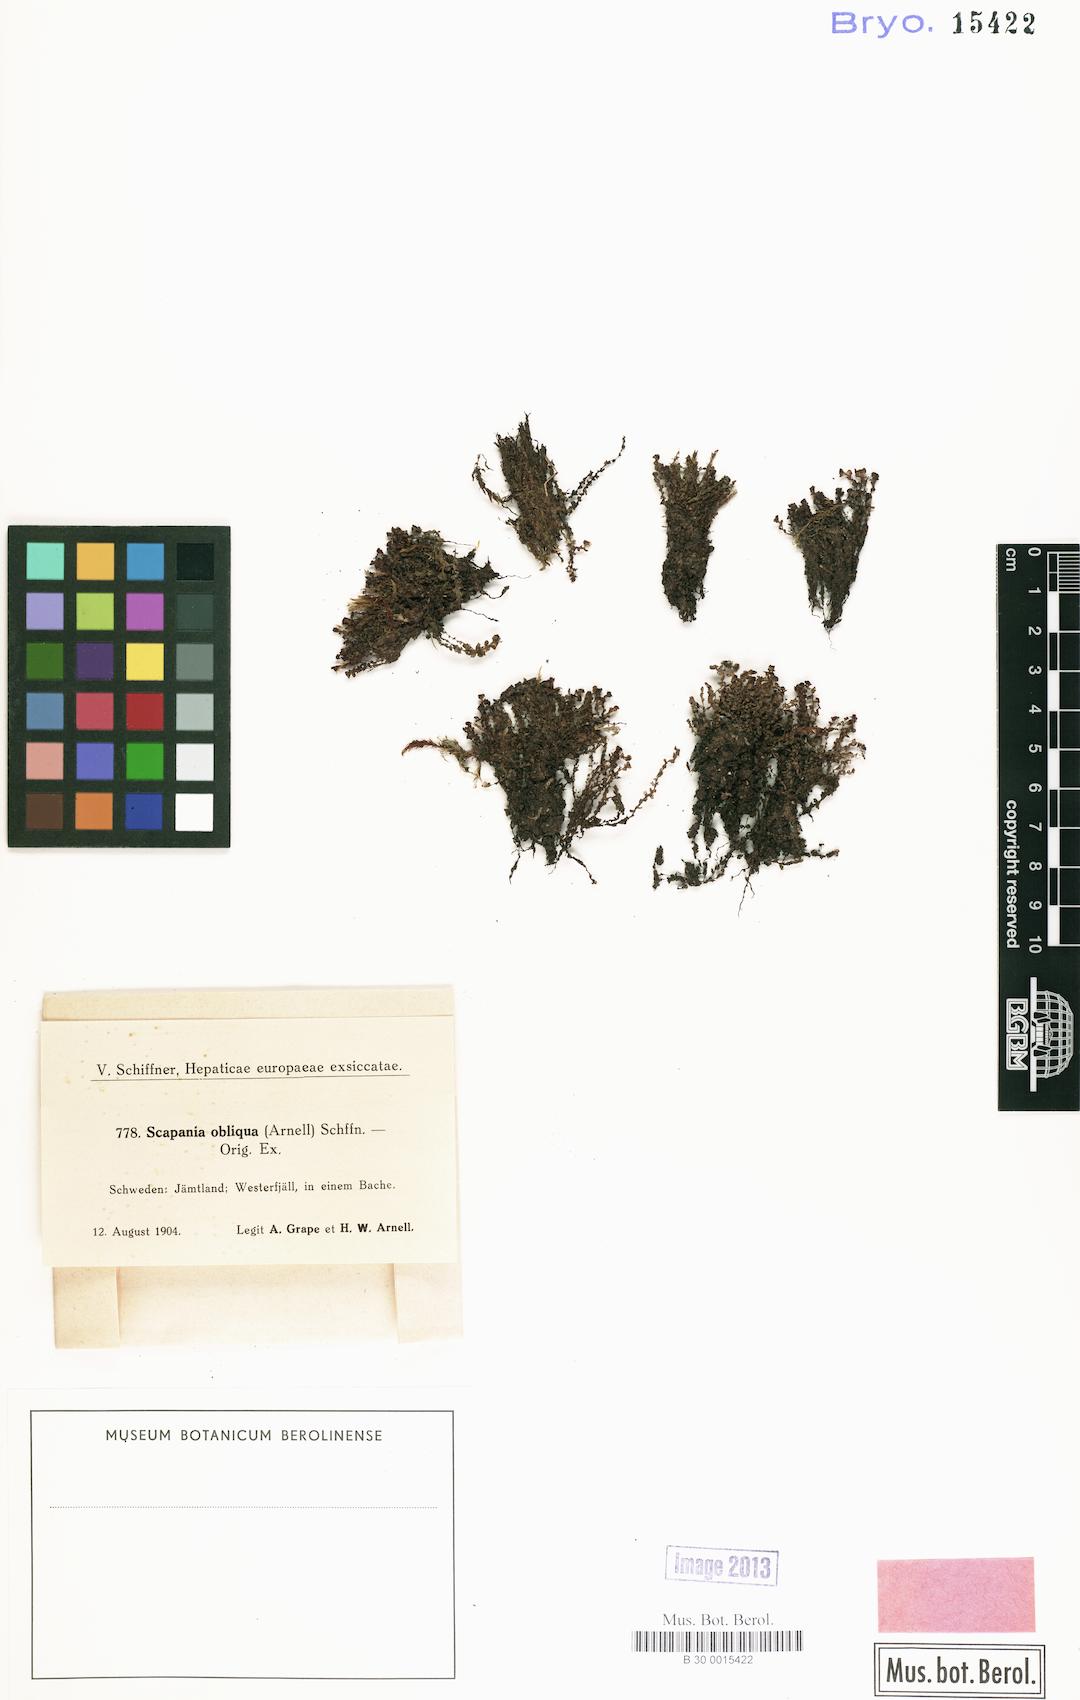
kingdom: Plantae
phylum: Marchantiophyta
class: Jungermanniopsida
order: Jungermanniales
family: Scapaniaceae
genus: Scapania
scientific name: Scapania uliginosa
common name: Marsh earwort
